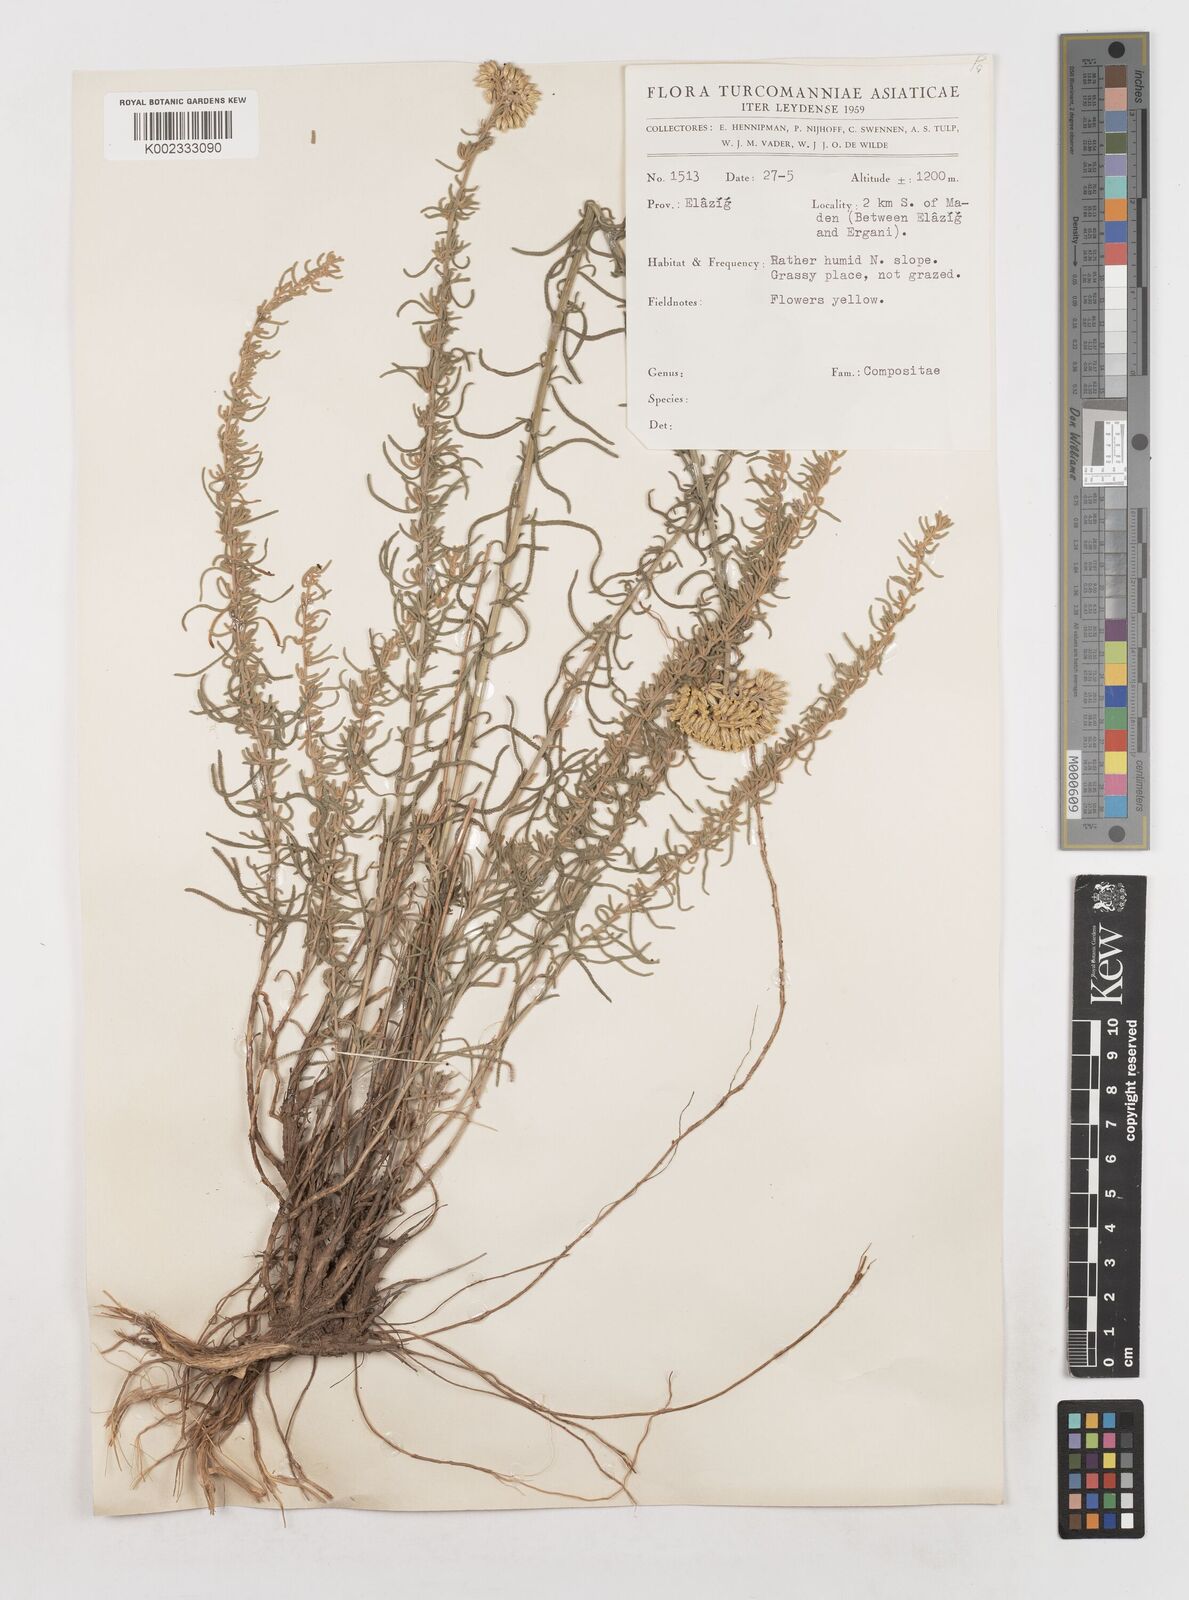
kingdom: Plantae
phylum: Tracheophyta
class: Magnoliopsida
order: Asterales
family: Asteraceae
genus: Achillea
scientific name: Achillea
